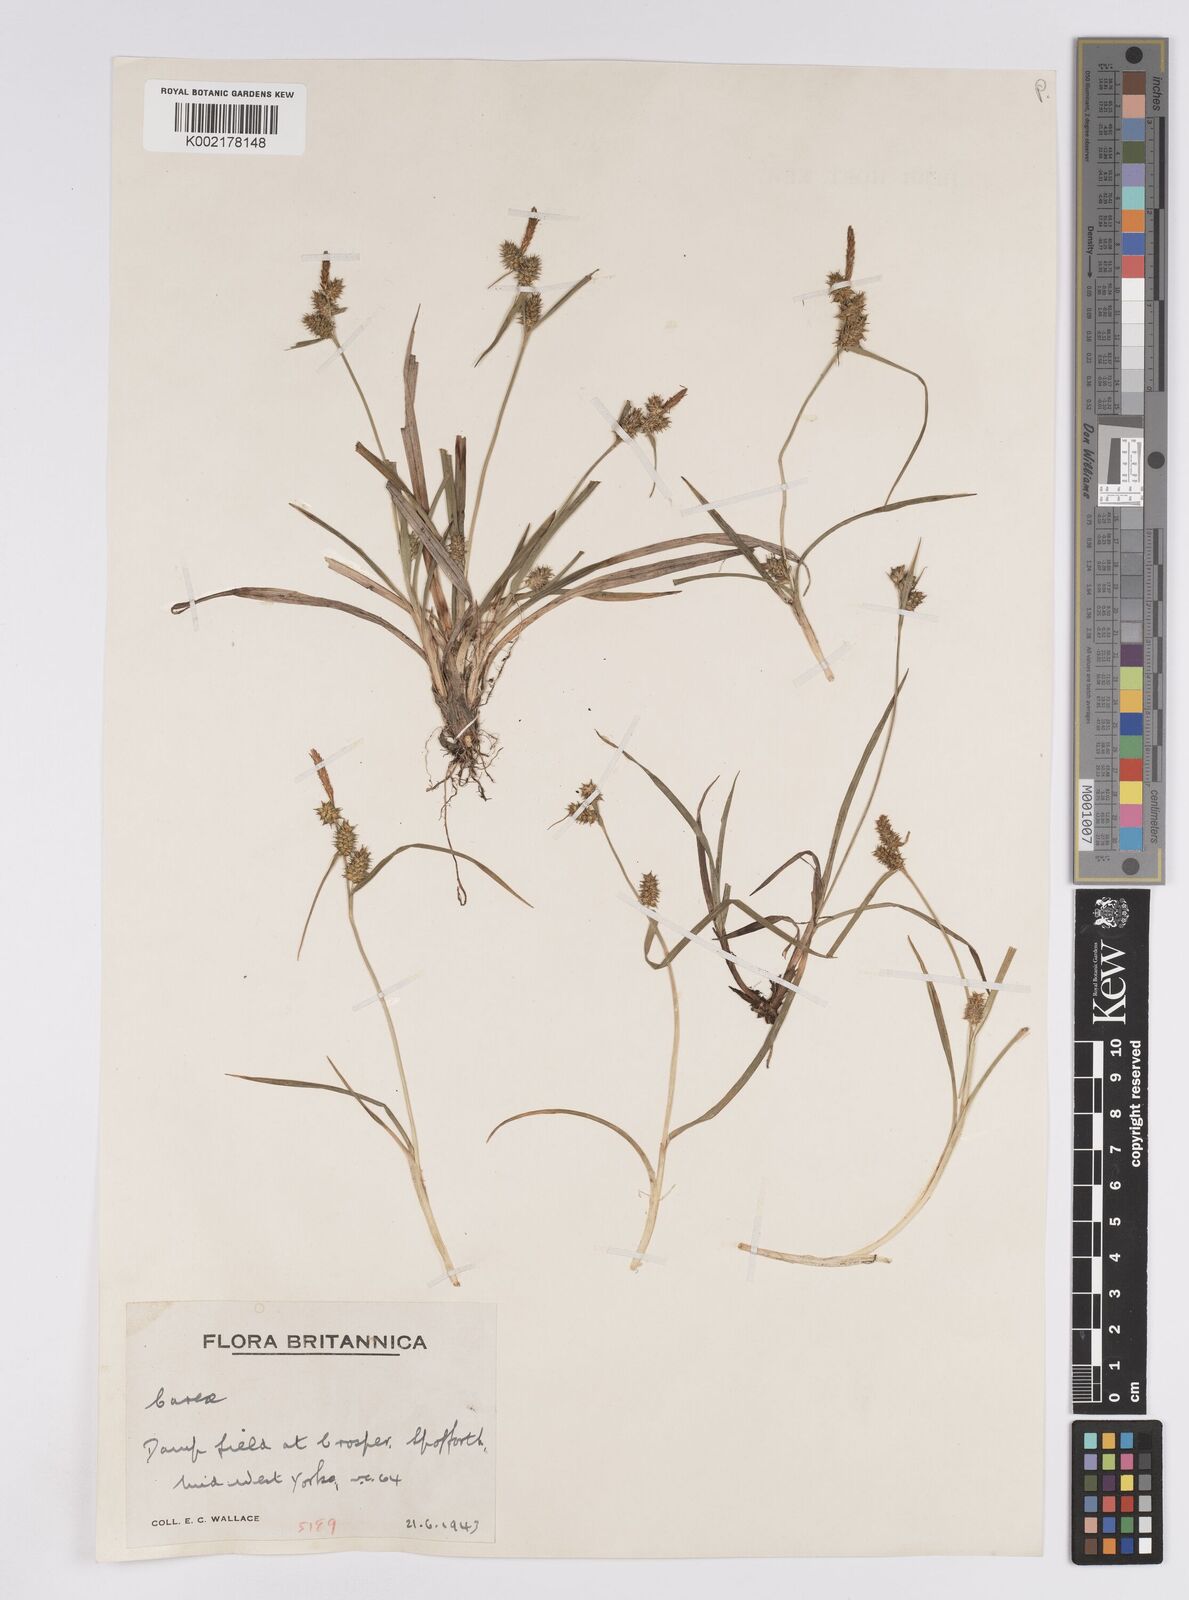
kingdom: Plantae
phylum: Tracheophyta
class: Liliopsida
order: Poales
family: Cyperaceae
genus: Carex
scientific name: Carex demissa
